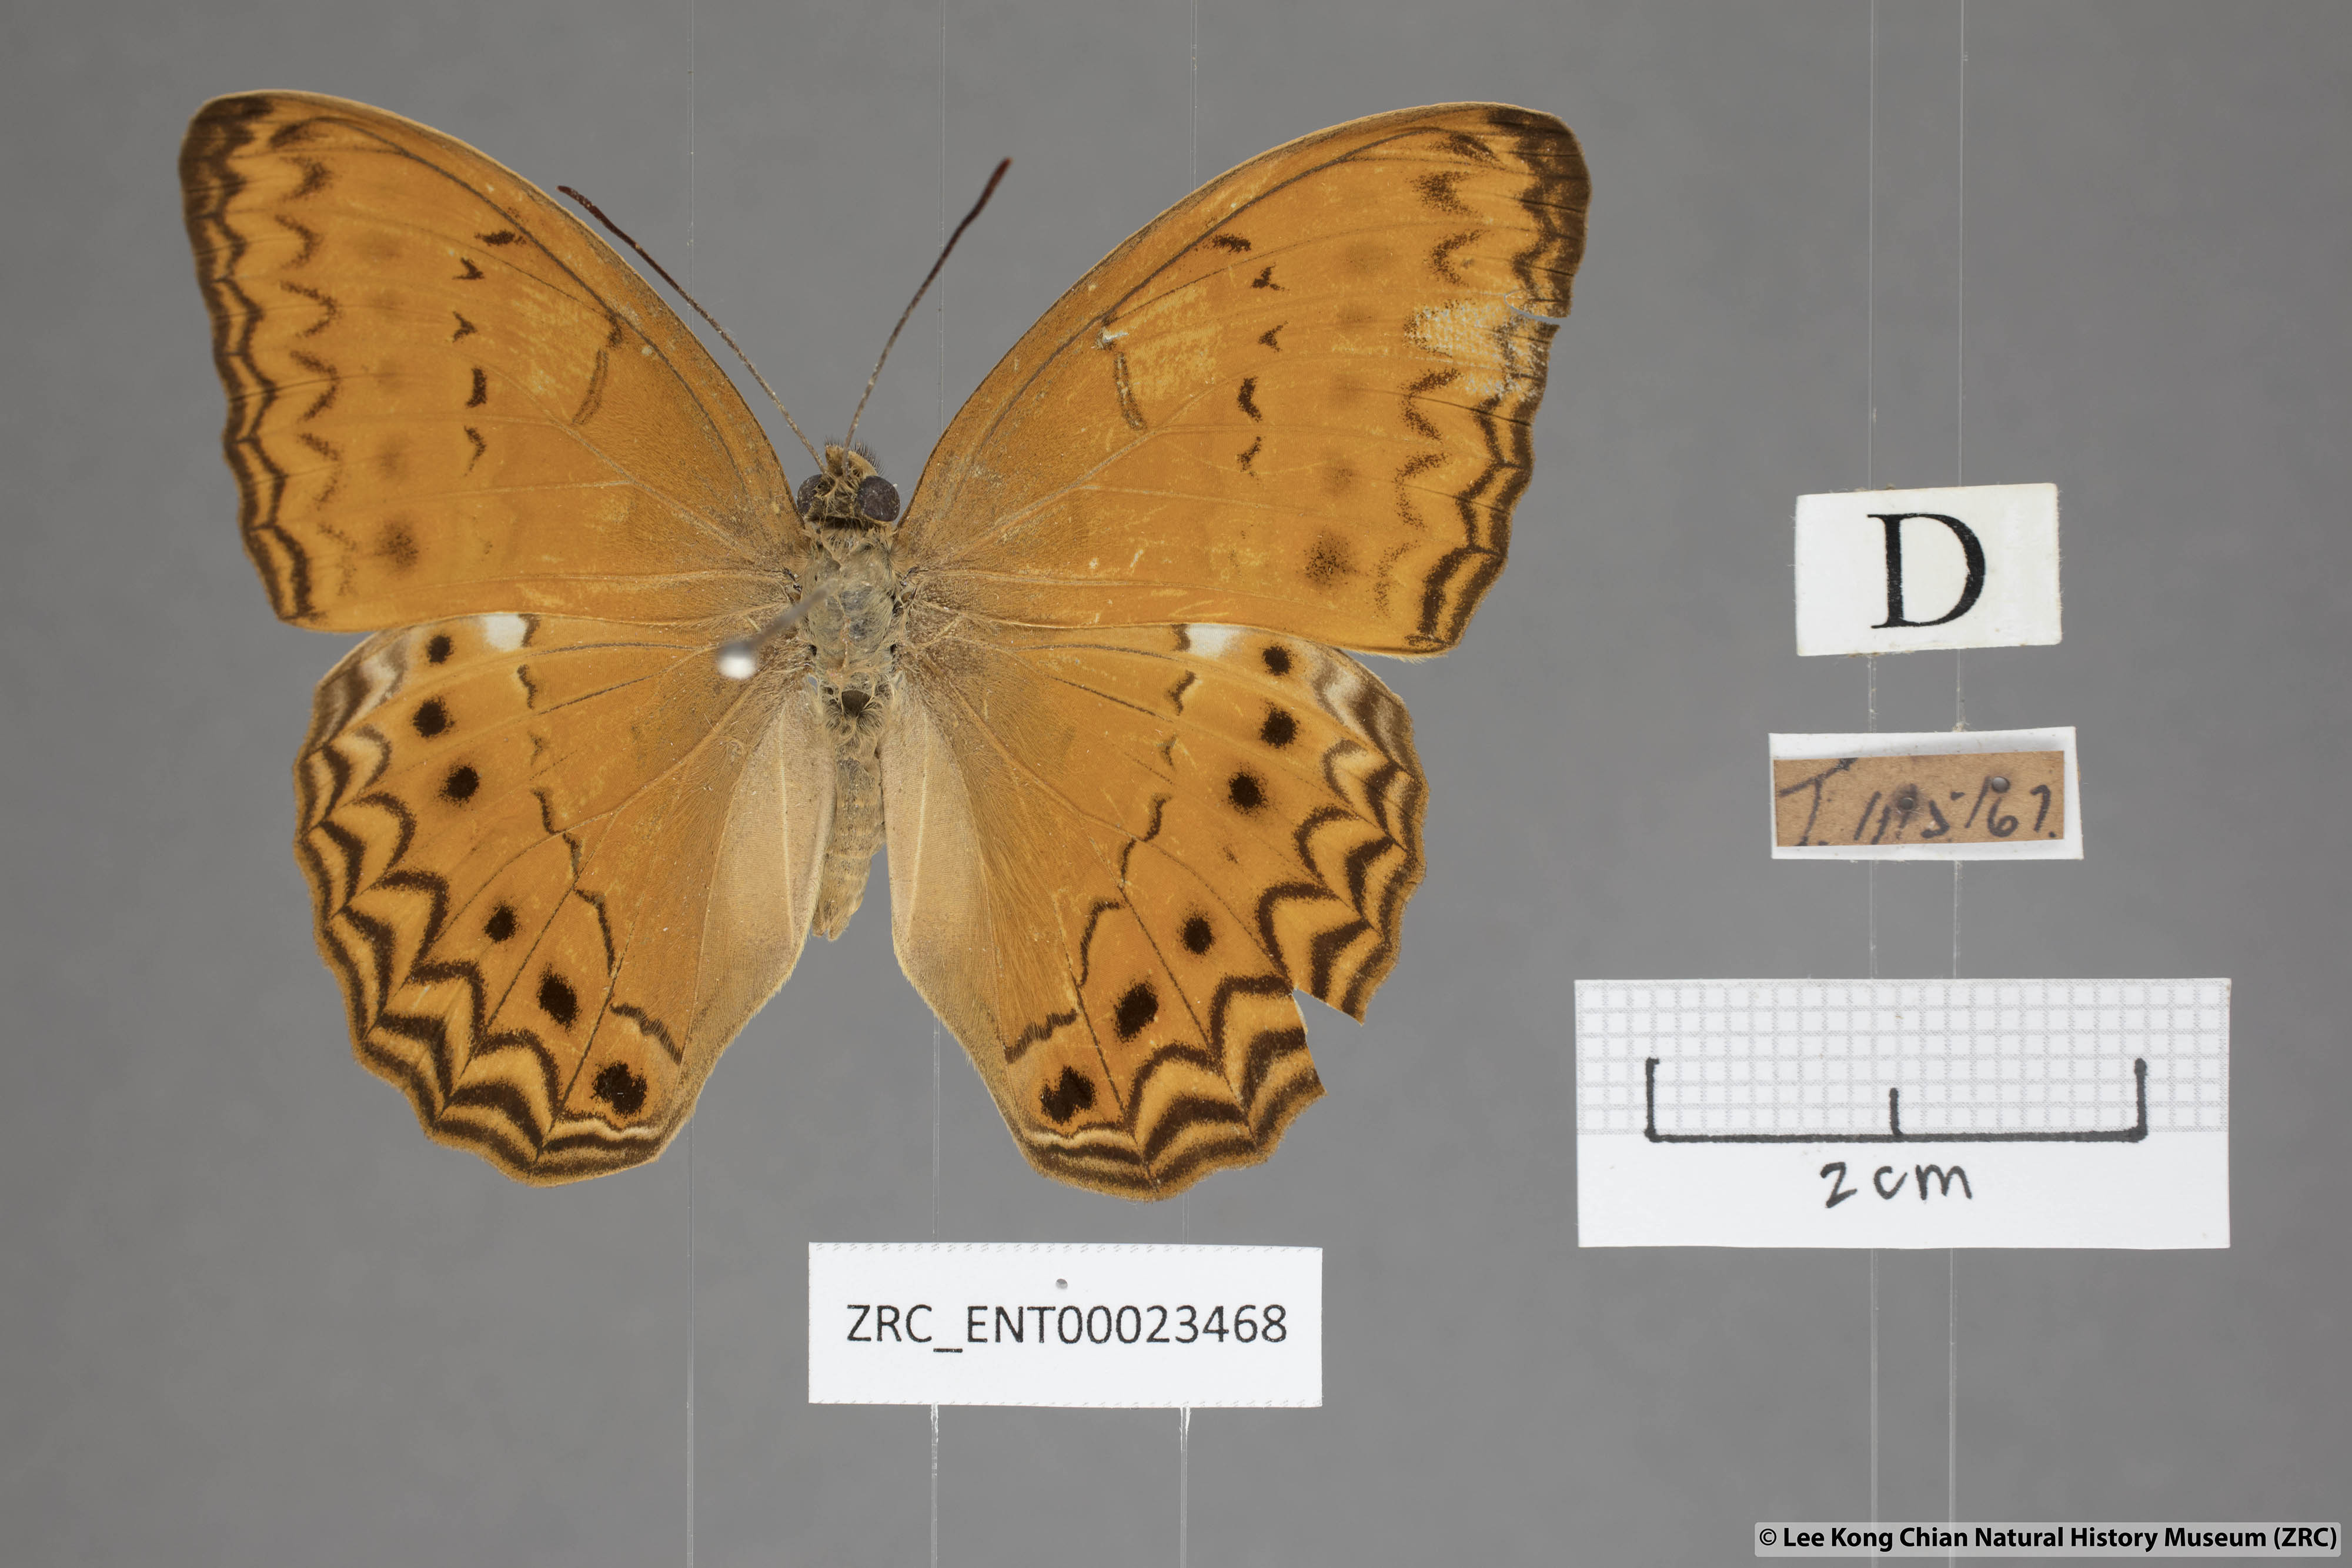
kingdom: Animalia
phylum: Arthropoda
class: Insecta
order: Lepidoptera
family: Nymphalidae
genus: Cirrochroa
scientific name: Cirrochroa tyche
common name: Common yeoman
